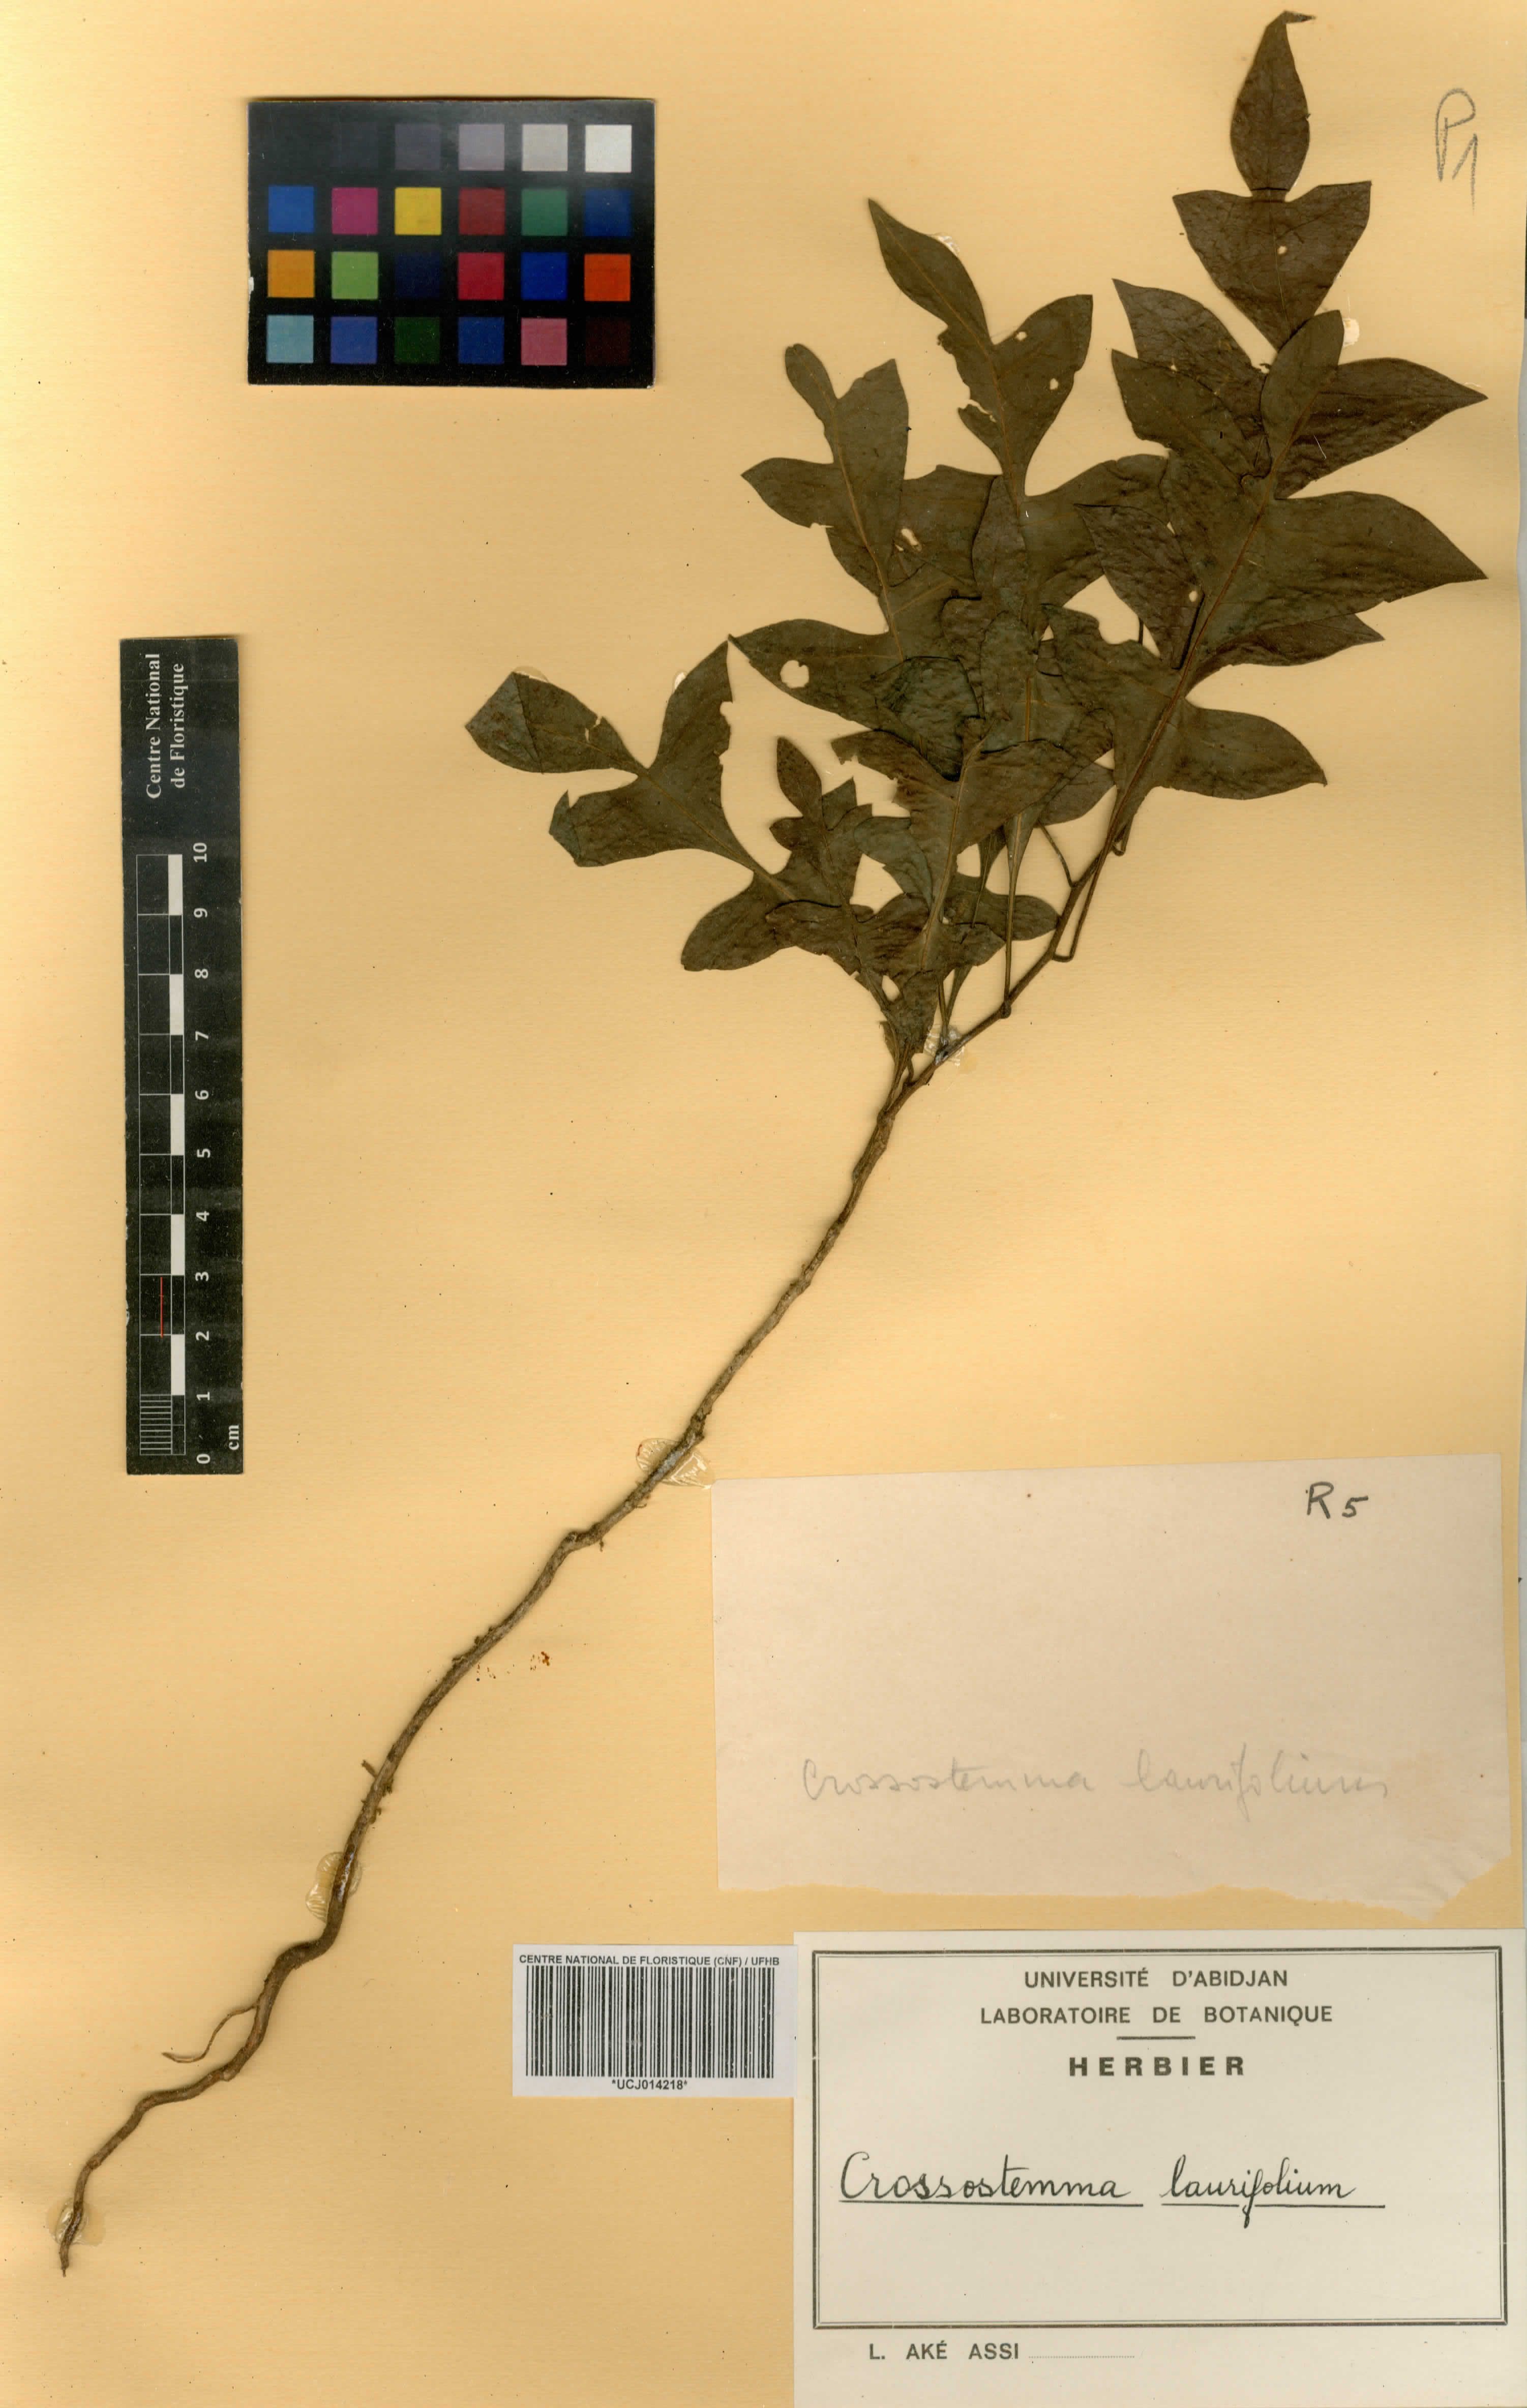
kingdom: Plantae
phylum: Tracheophyta
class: Magnoliopsida
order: Malpighiales
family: Passifloraceae
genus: Crossostemma
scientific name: Crossostemma laurifolium
